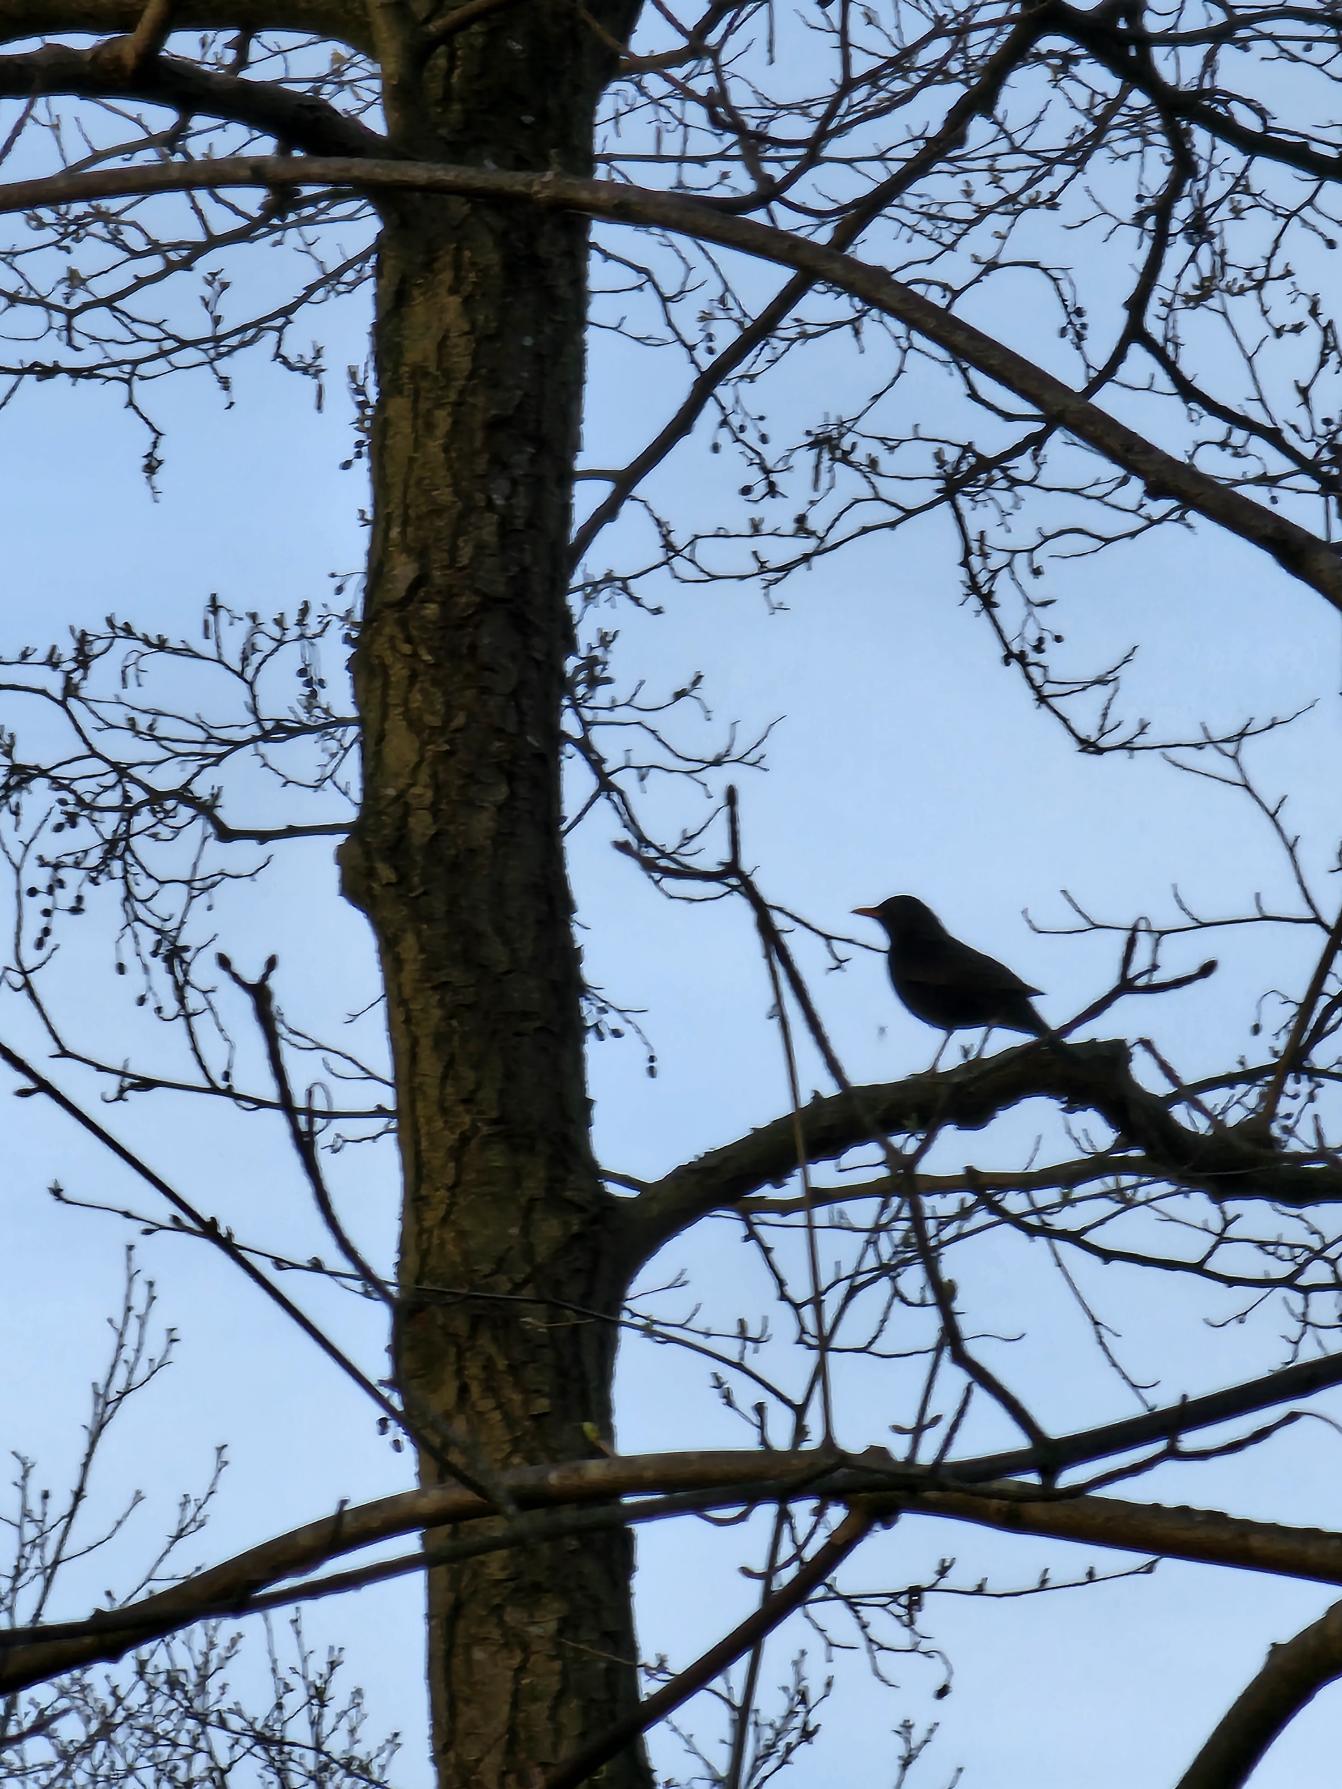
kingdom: Animalia
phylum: Chordata
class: Aves
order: Passeriformes
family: Turdidae
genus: Turdus
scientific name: Turdus merula
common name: Solsort
